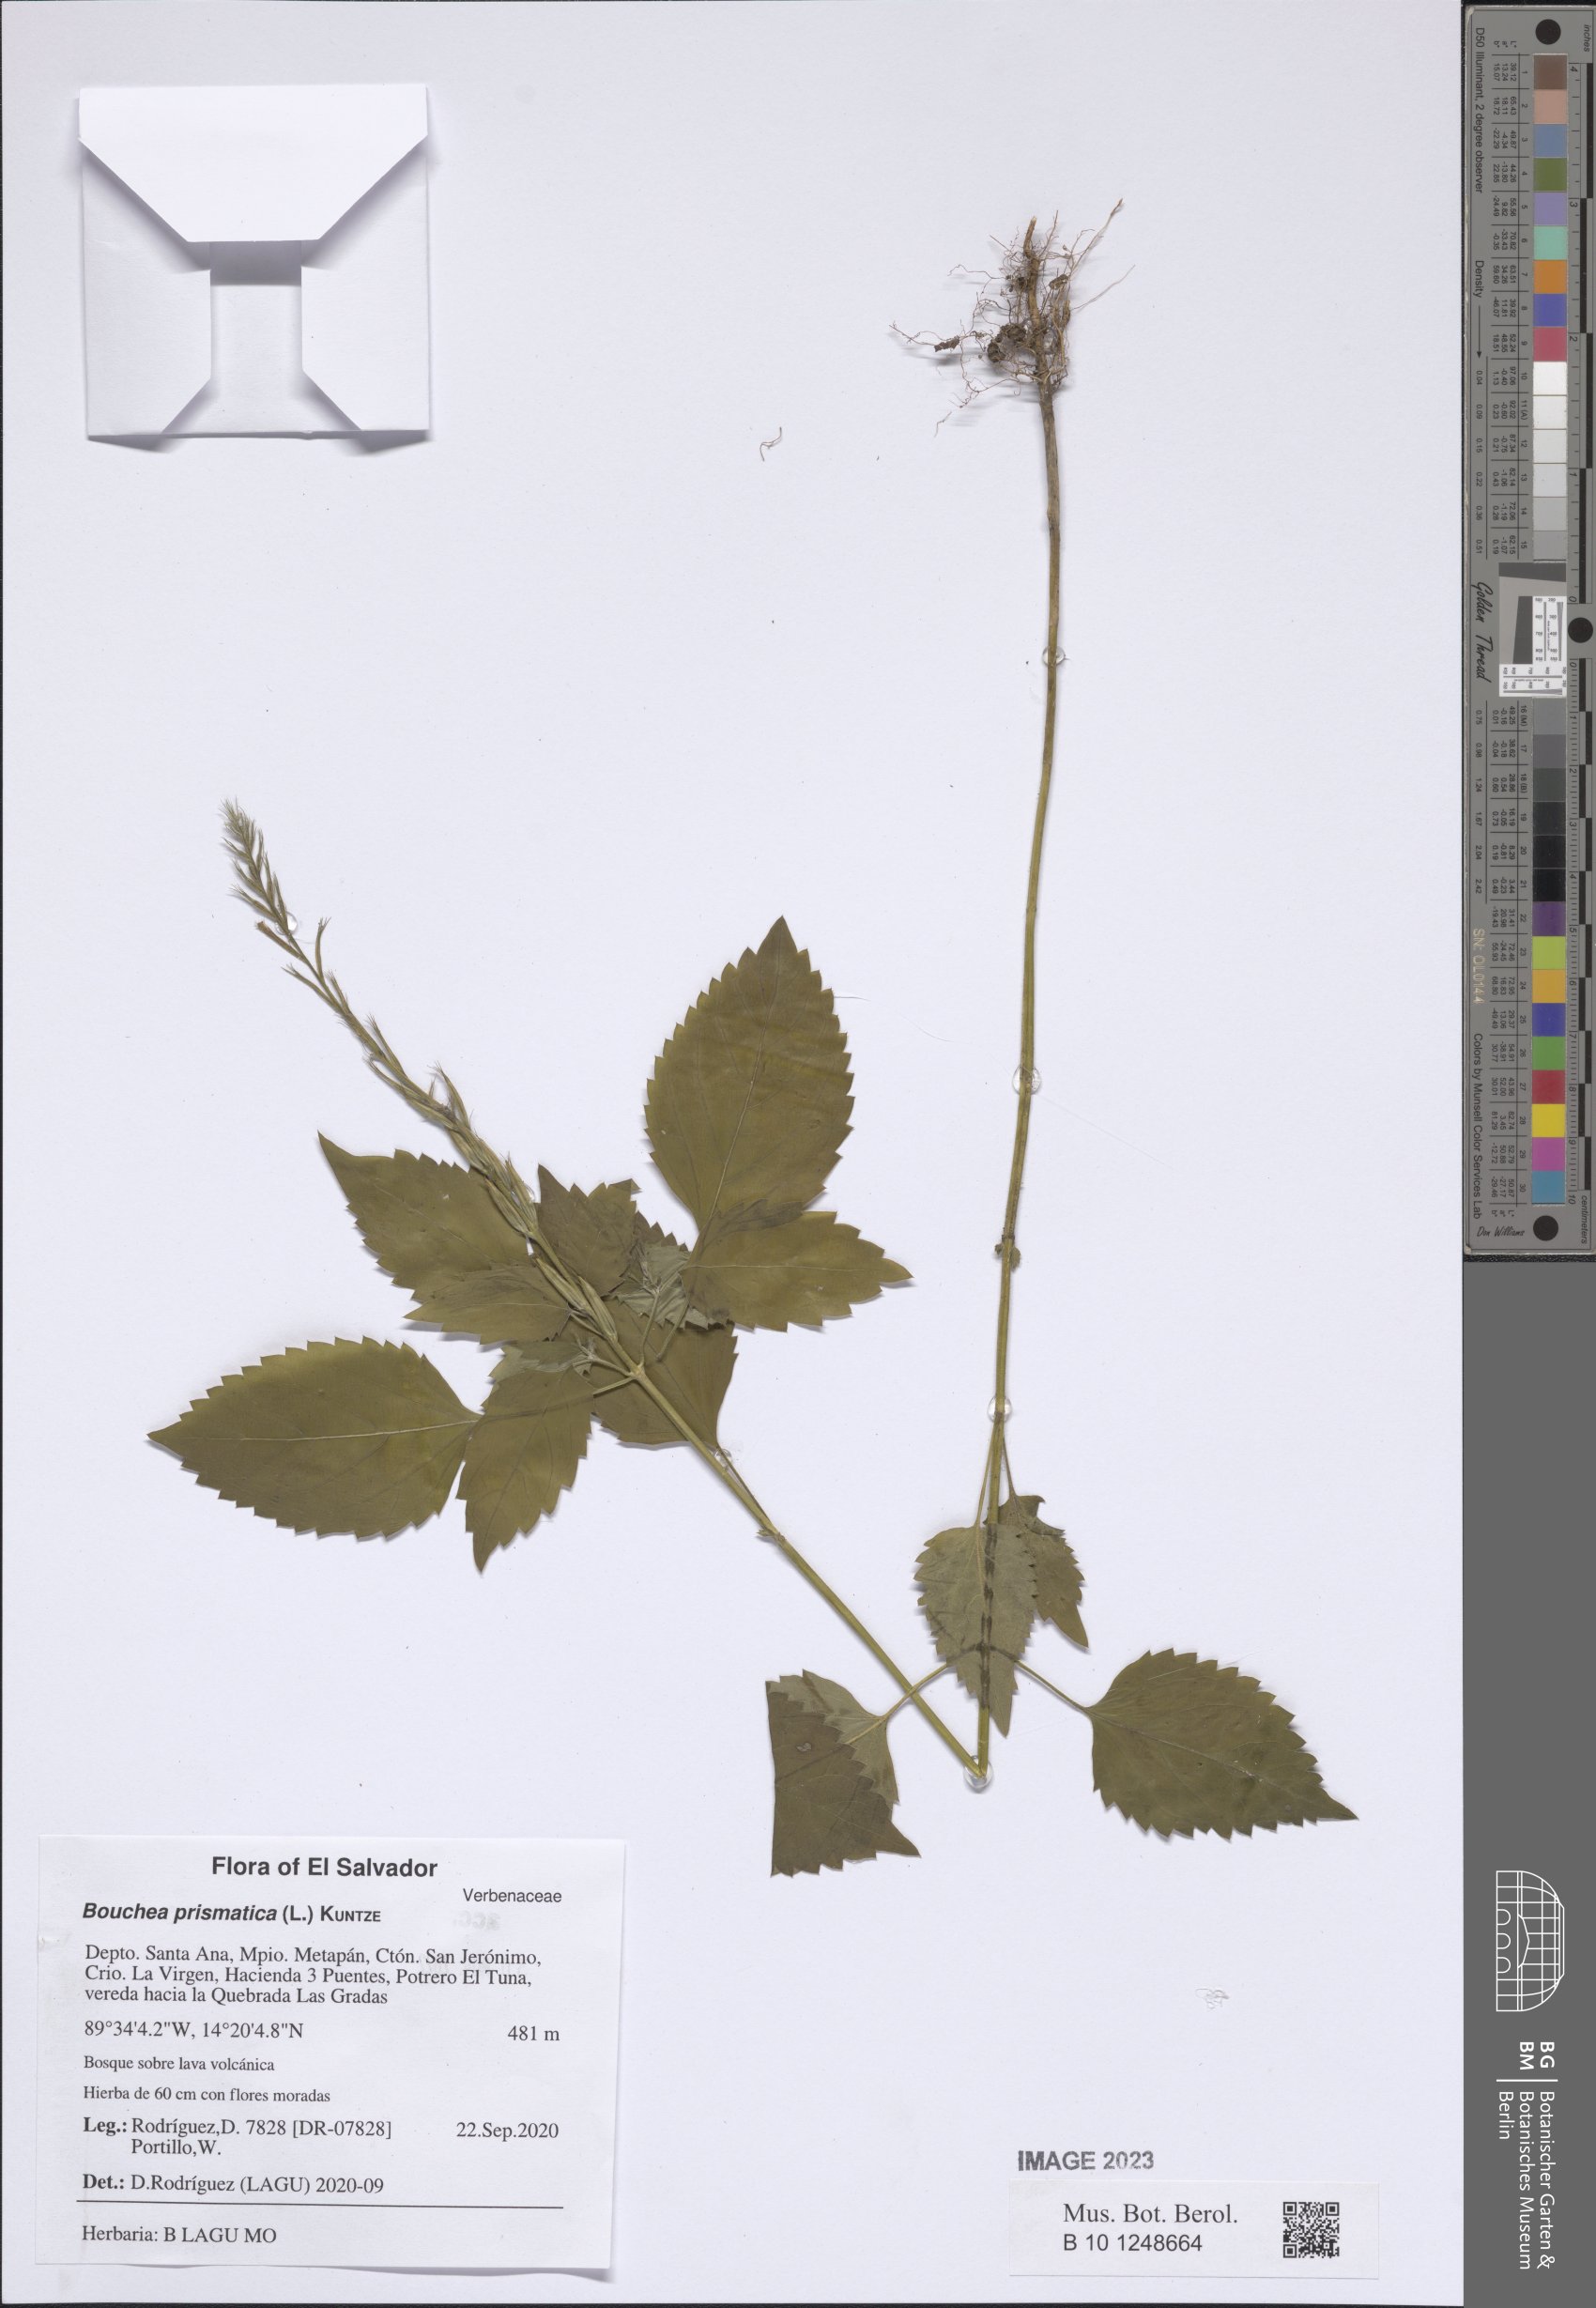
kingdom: Plantae
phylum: Tracheophyta
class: Magnoliopsida
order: Lamiales
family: Verbenaceae
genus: Bouchea
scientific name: Bouchea prismatica
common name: Vervine
